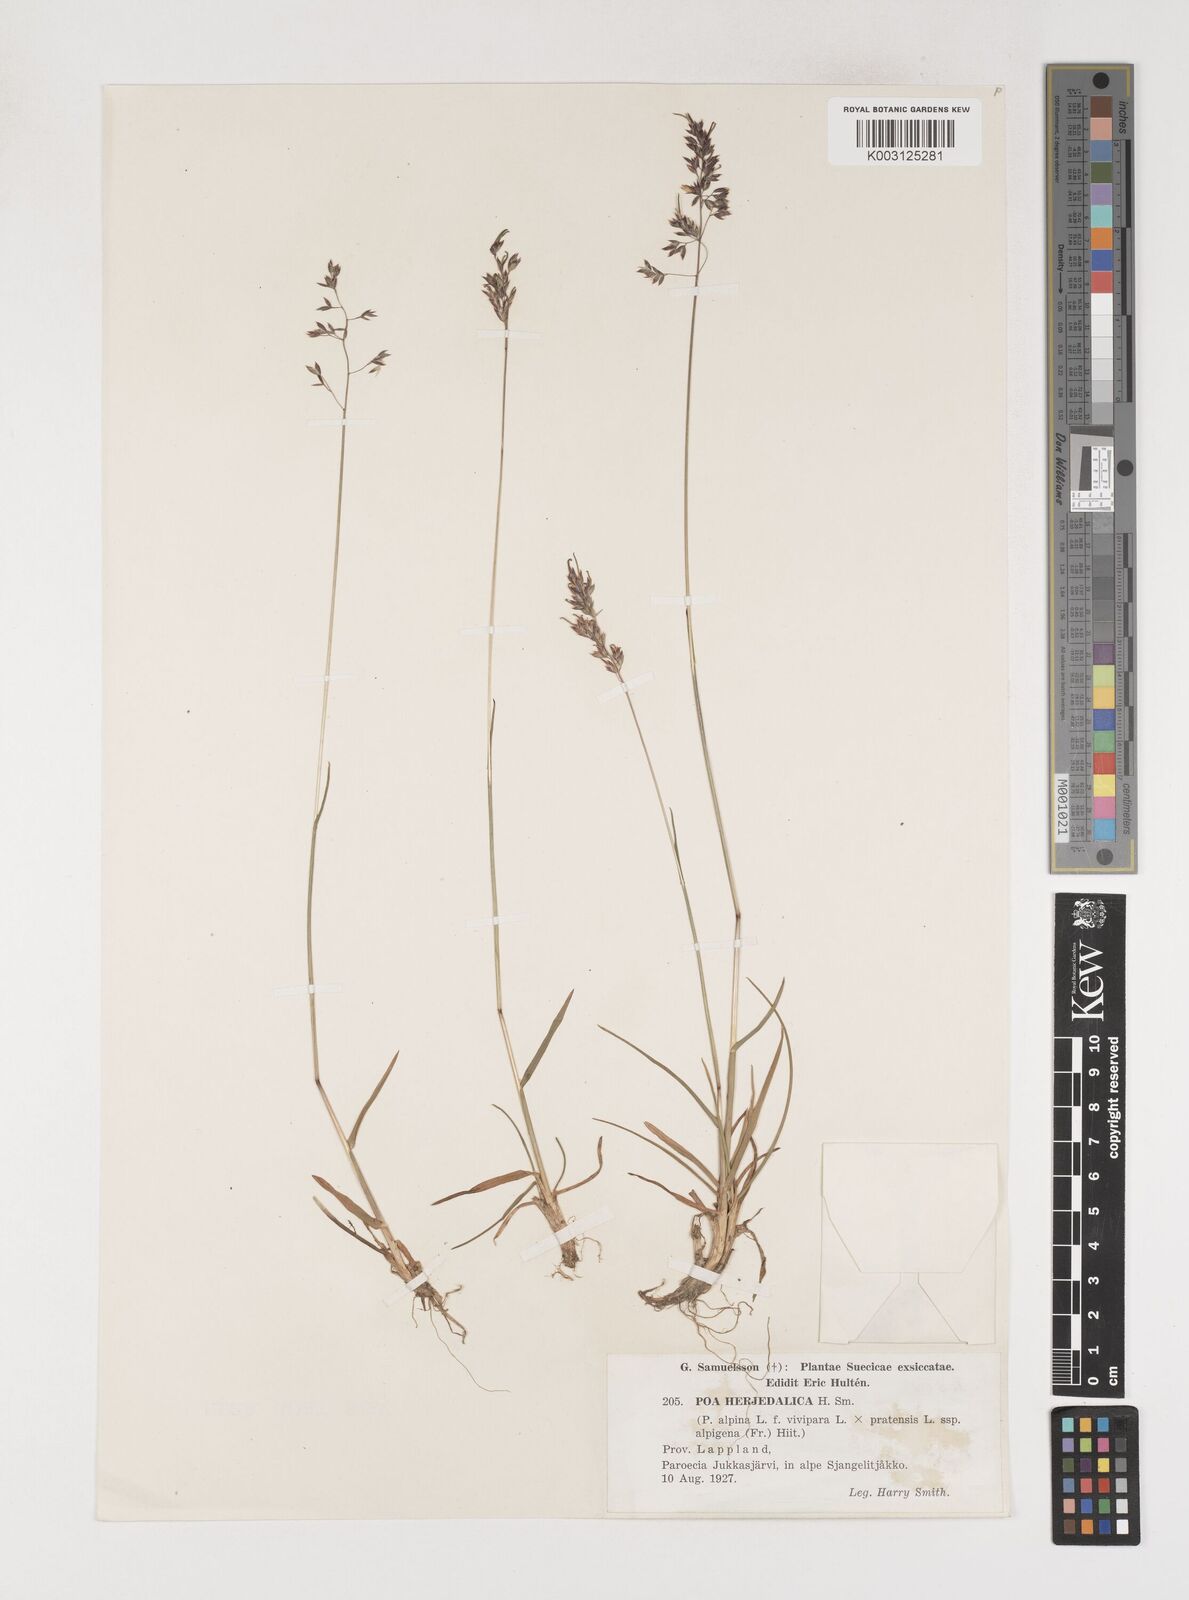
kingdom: Plantae
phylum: Tracheophyta
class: Liliopsida
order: Poales
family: Poaceae
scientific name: Poaceae
